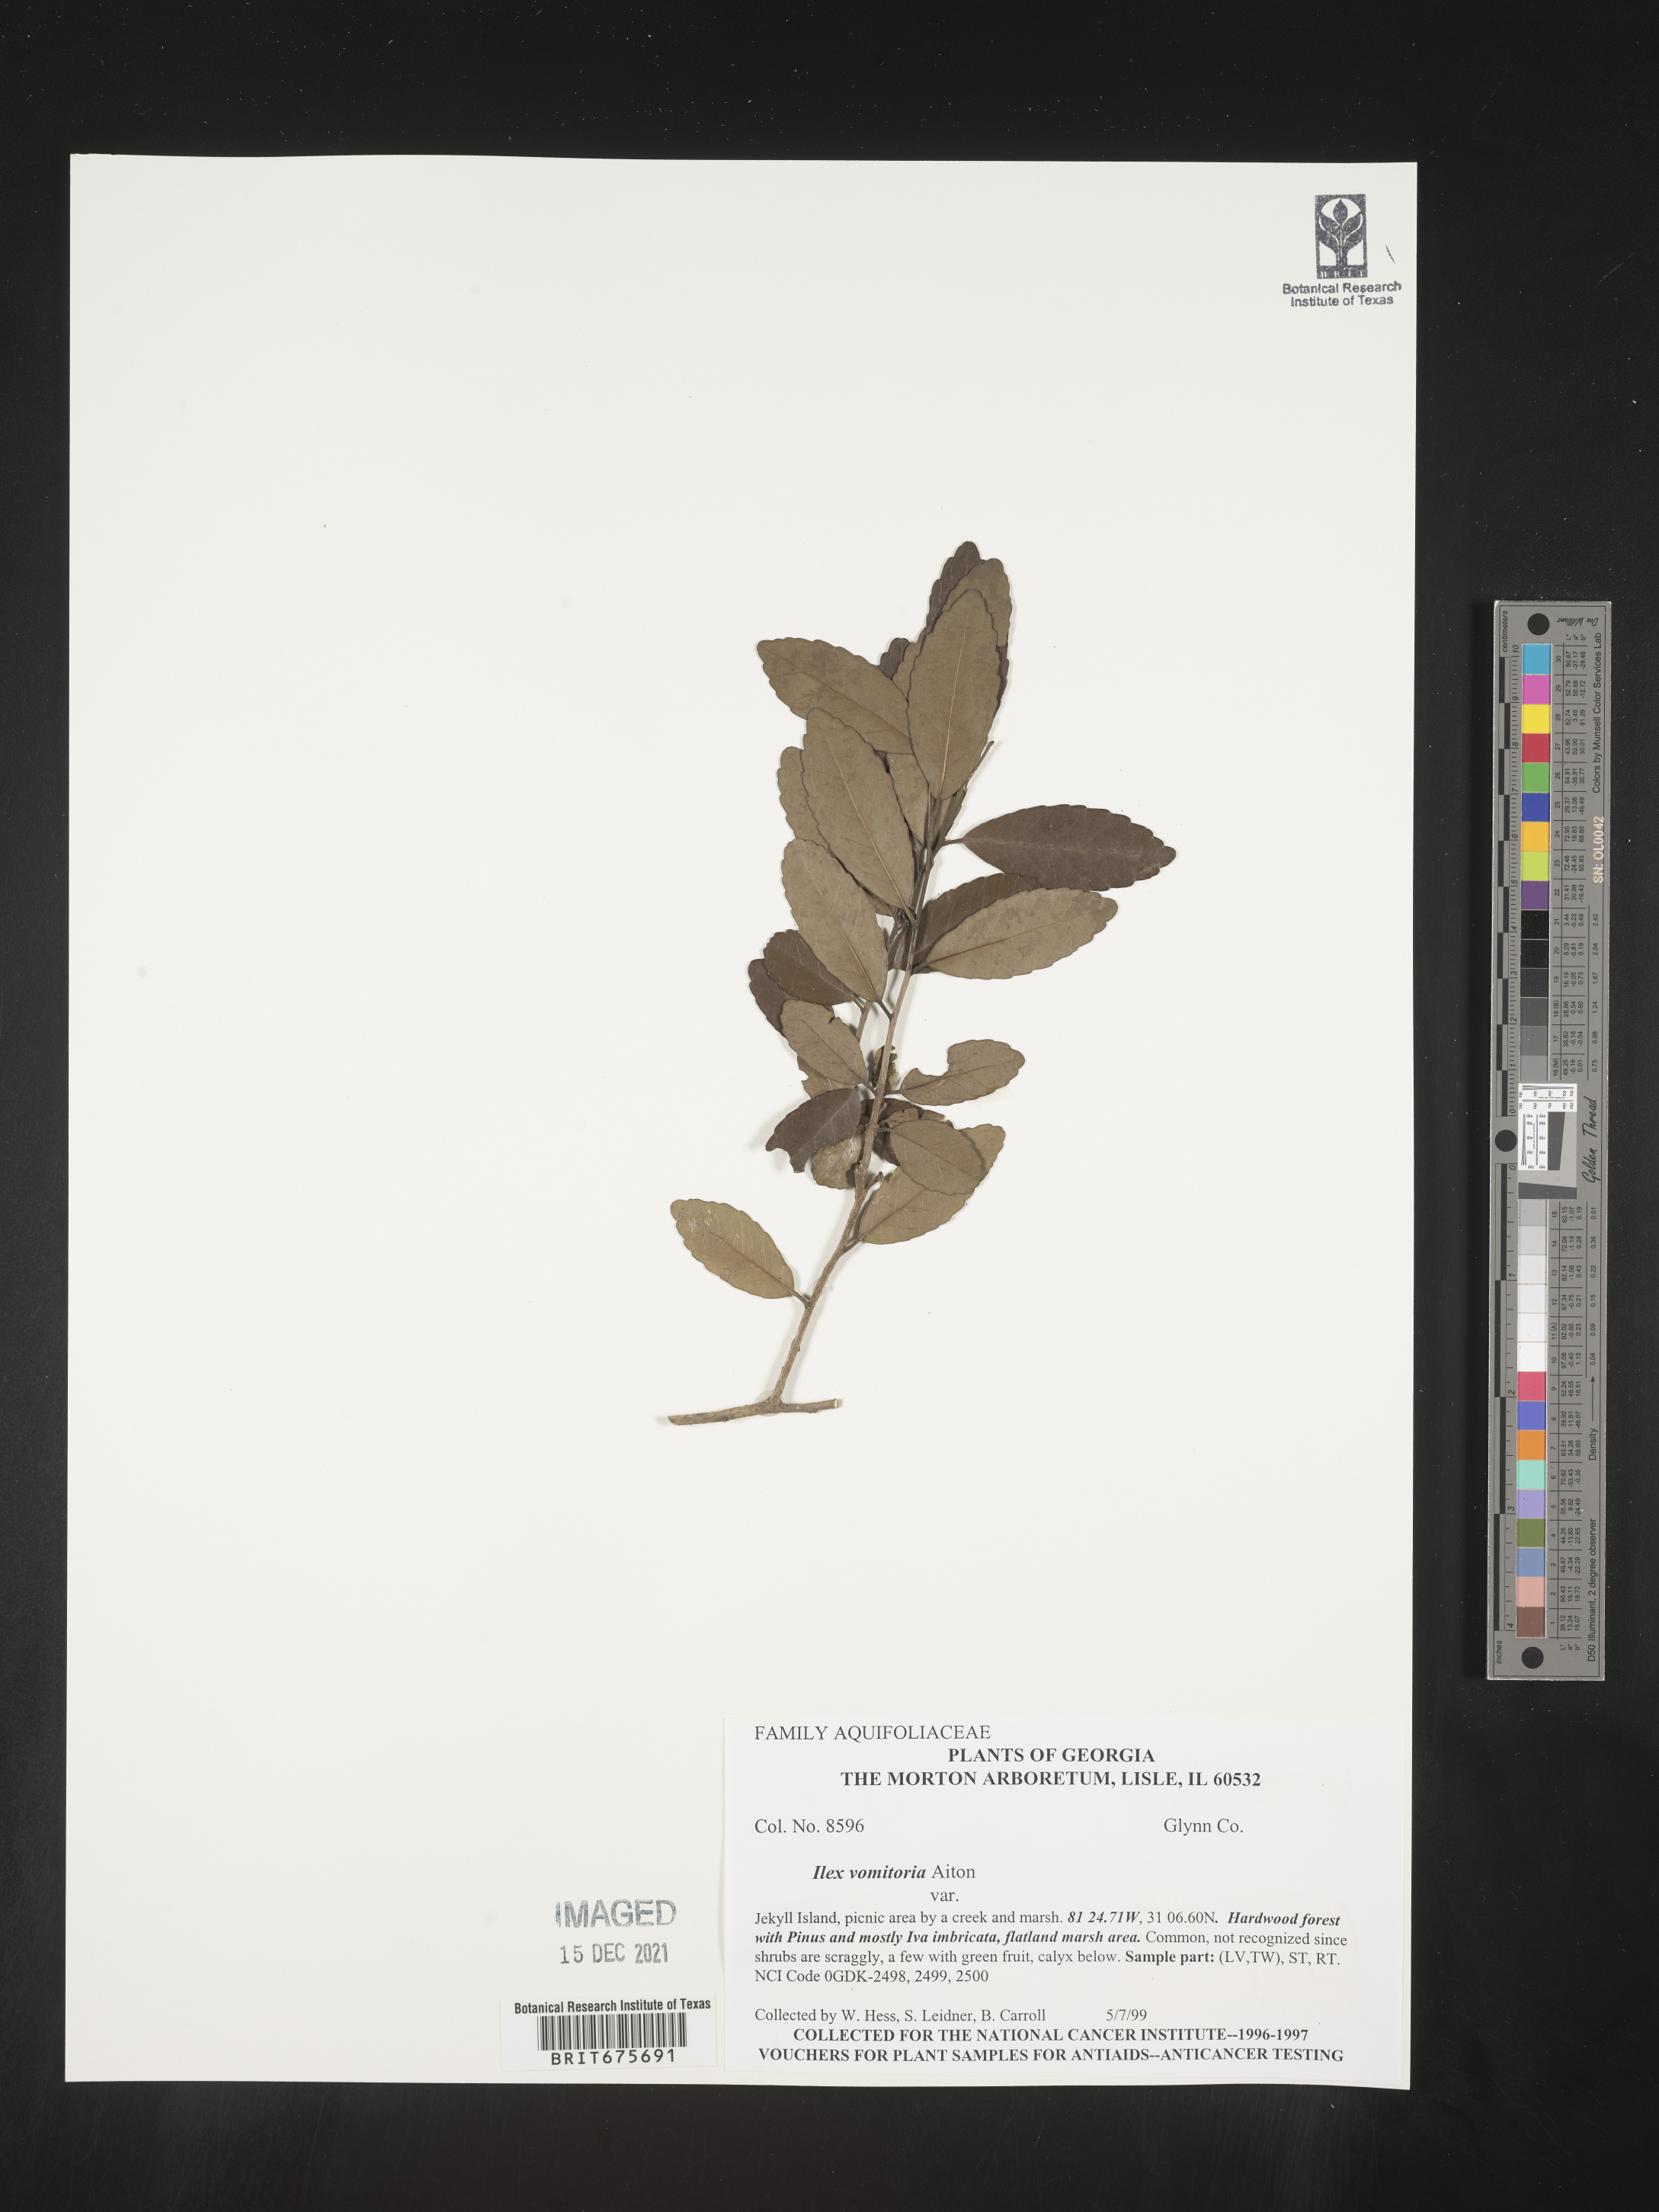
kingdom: Plantae
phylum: Tracheophyta
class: Magnoliopsida
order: Aquifoliales
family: Aquifoliaceae
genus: Ilex
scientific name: Ilex vomitoria
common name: Yaupon holly
